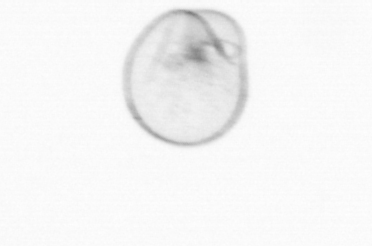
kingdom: Chromista
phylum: Myzozoa
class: Dinophyceae
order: Noctilucales
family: Noctilucaceae
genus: Noctiluca
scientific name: Noctiluca scintillans
